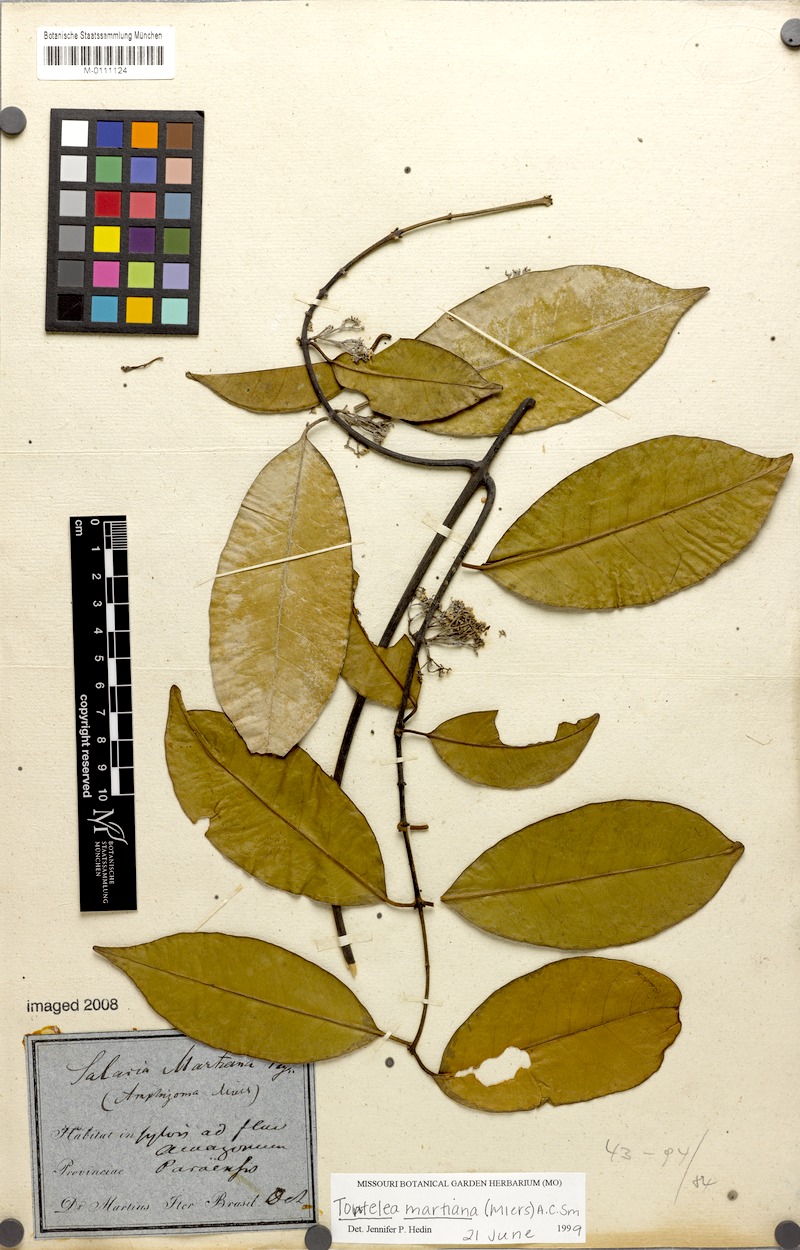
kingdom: Plantae
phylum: Tracheophyta
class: Magnoliopsida
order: Celastrales
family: Celastraceae
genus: Tontelea
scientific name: Tontelea martiana
